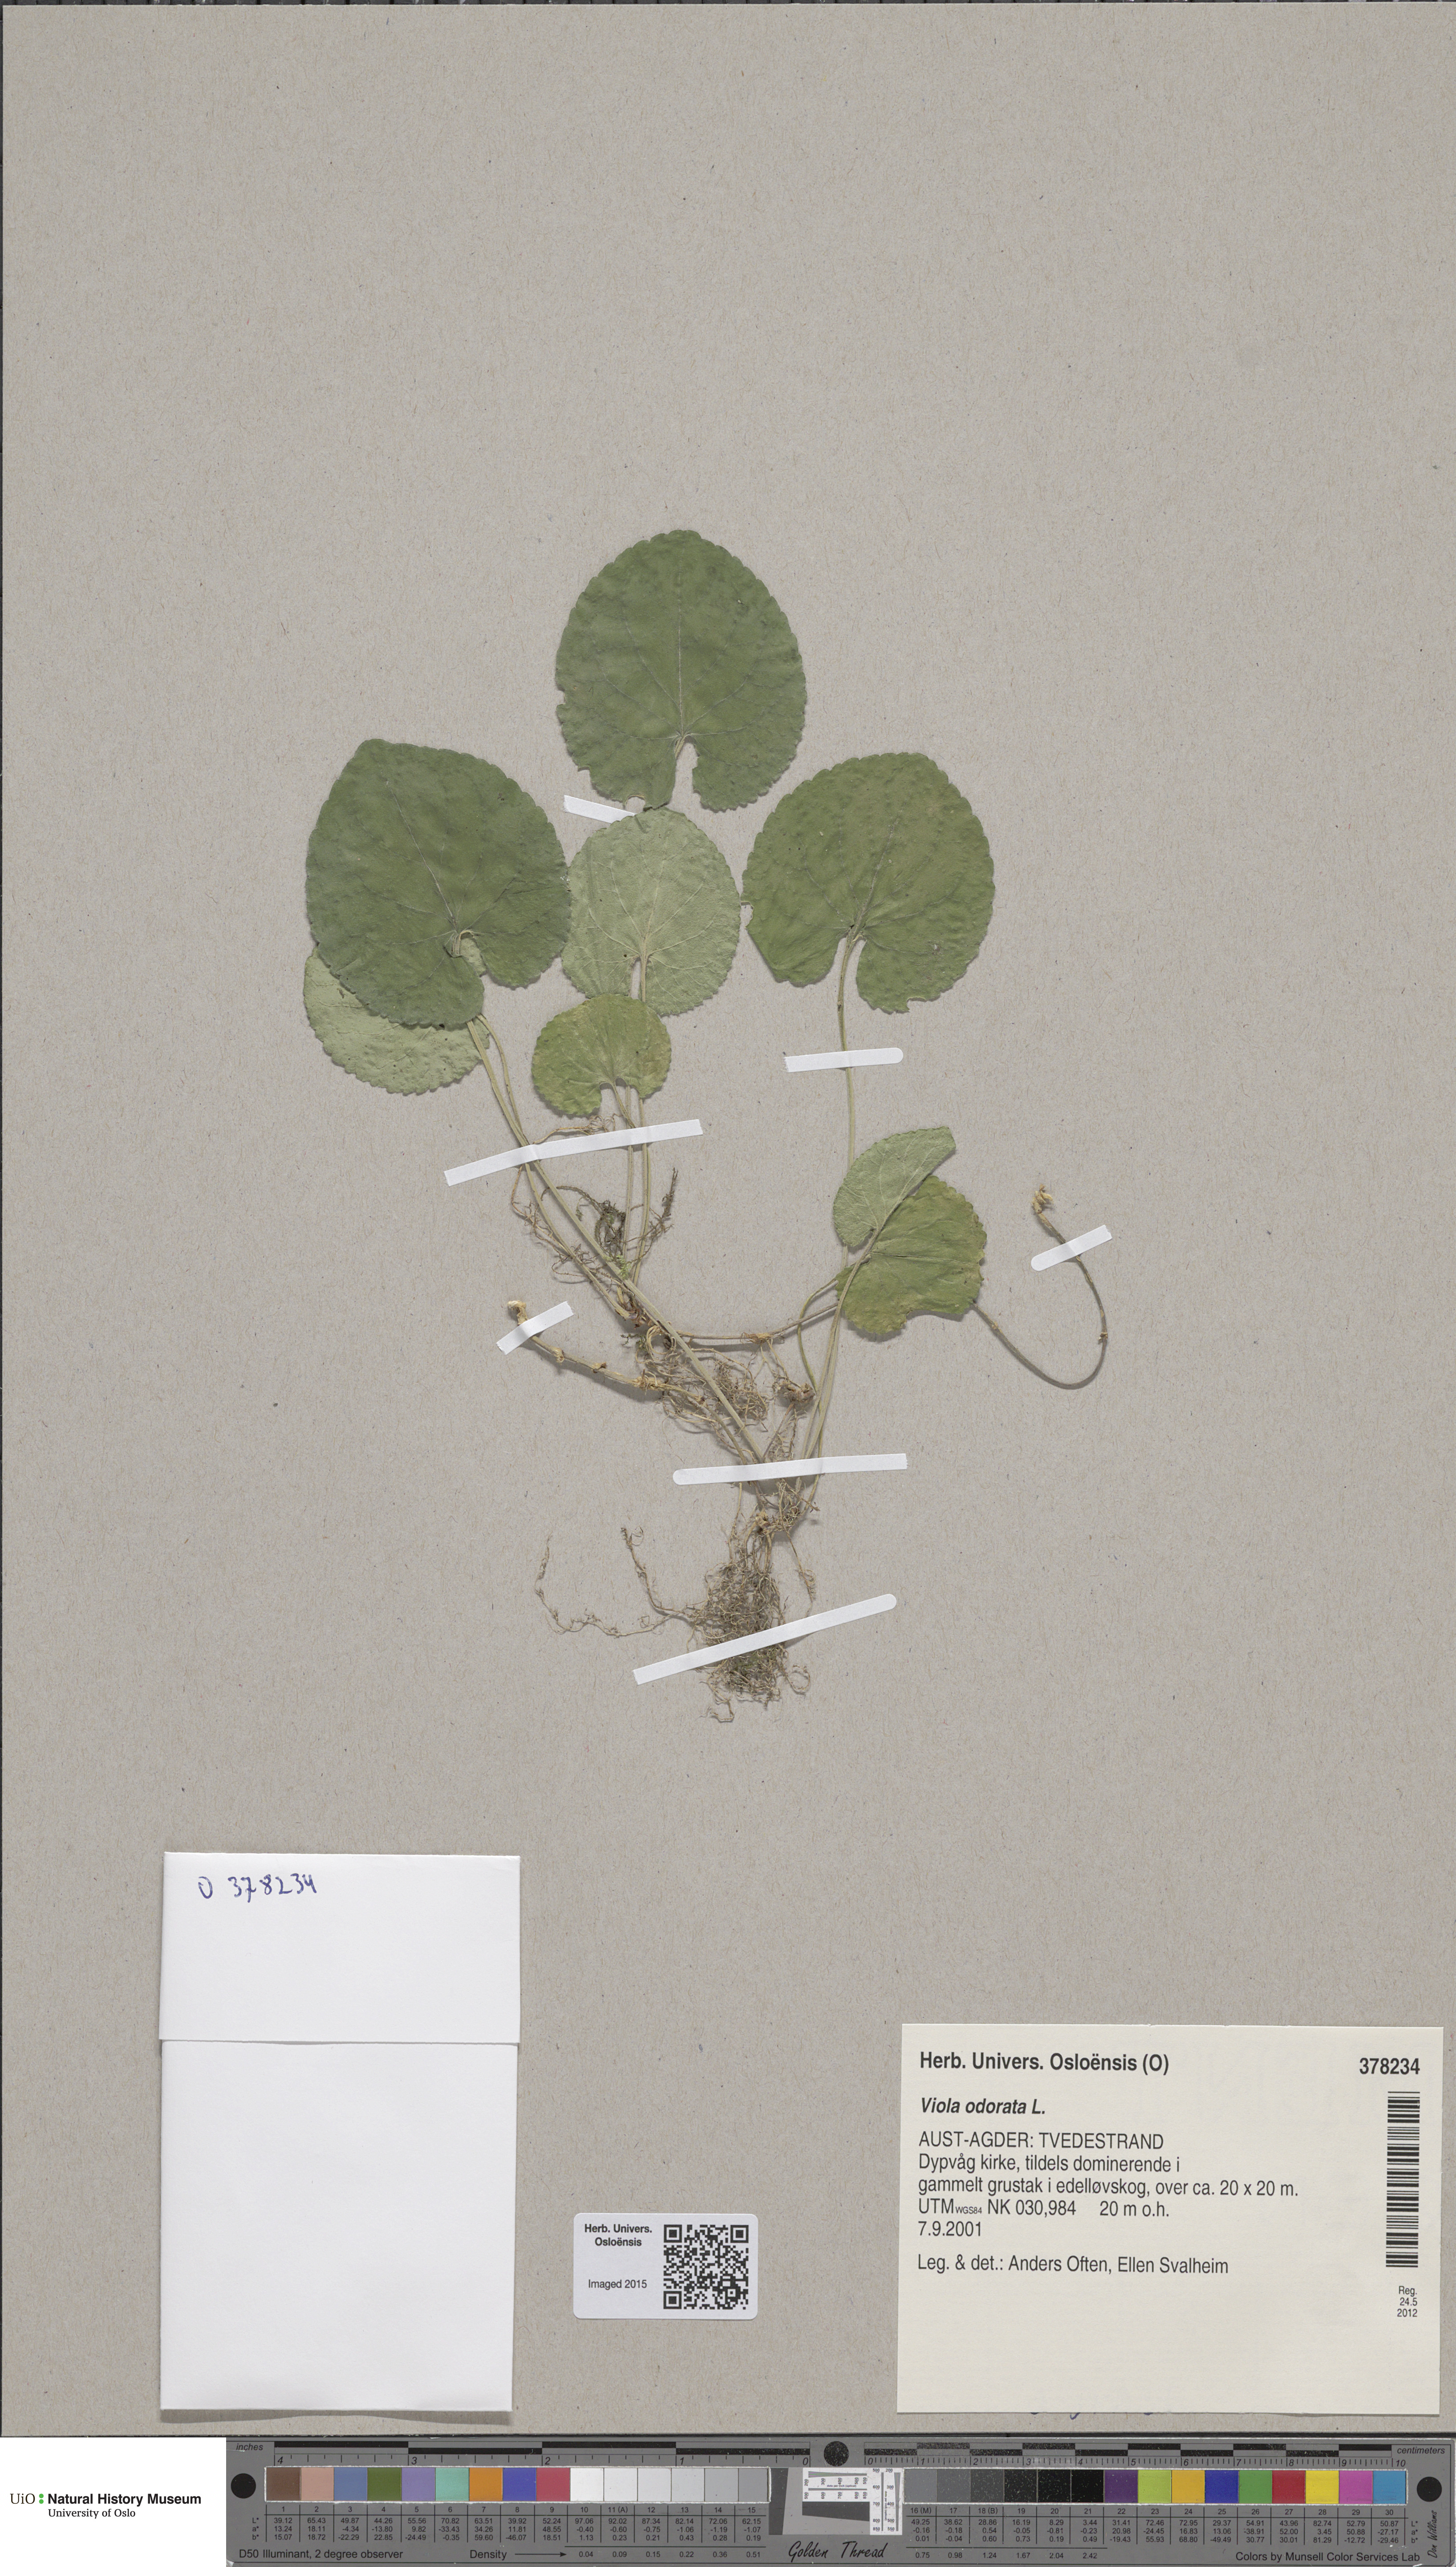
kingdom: Plantae
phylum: Tracheophyta
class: Magnoliopsida
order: Malpighiales
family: Violaceae
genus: Viola
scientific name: Viola odorata
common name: Sweet violet
